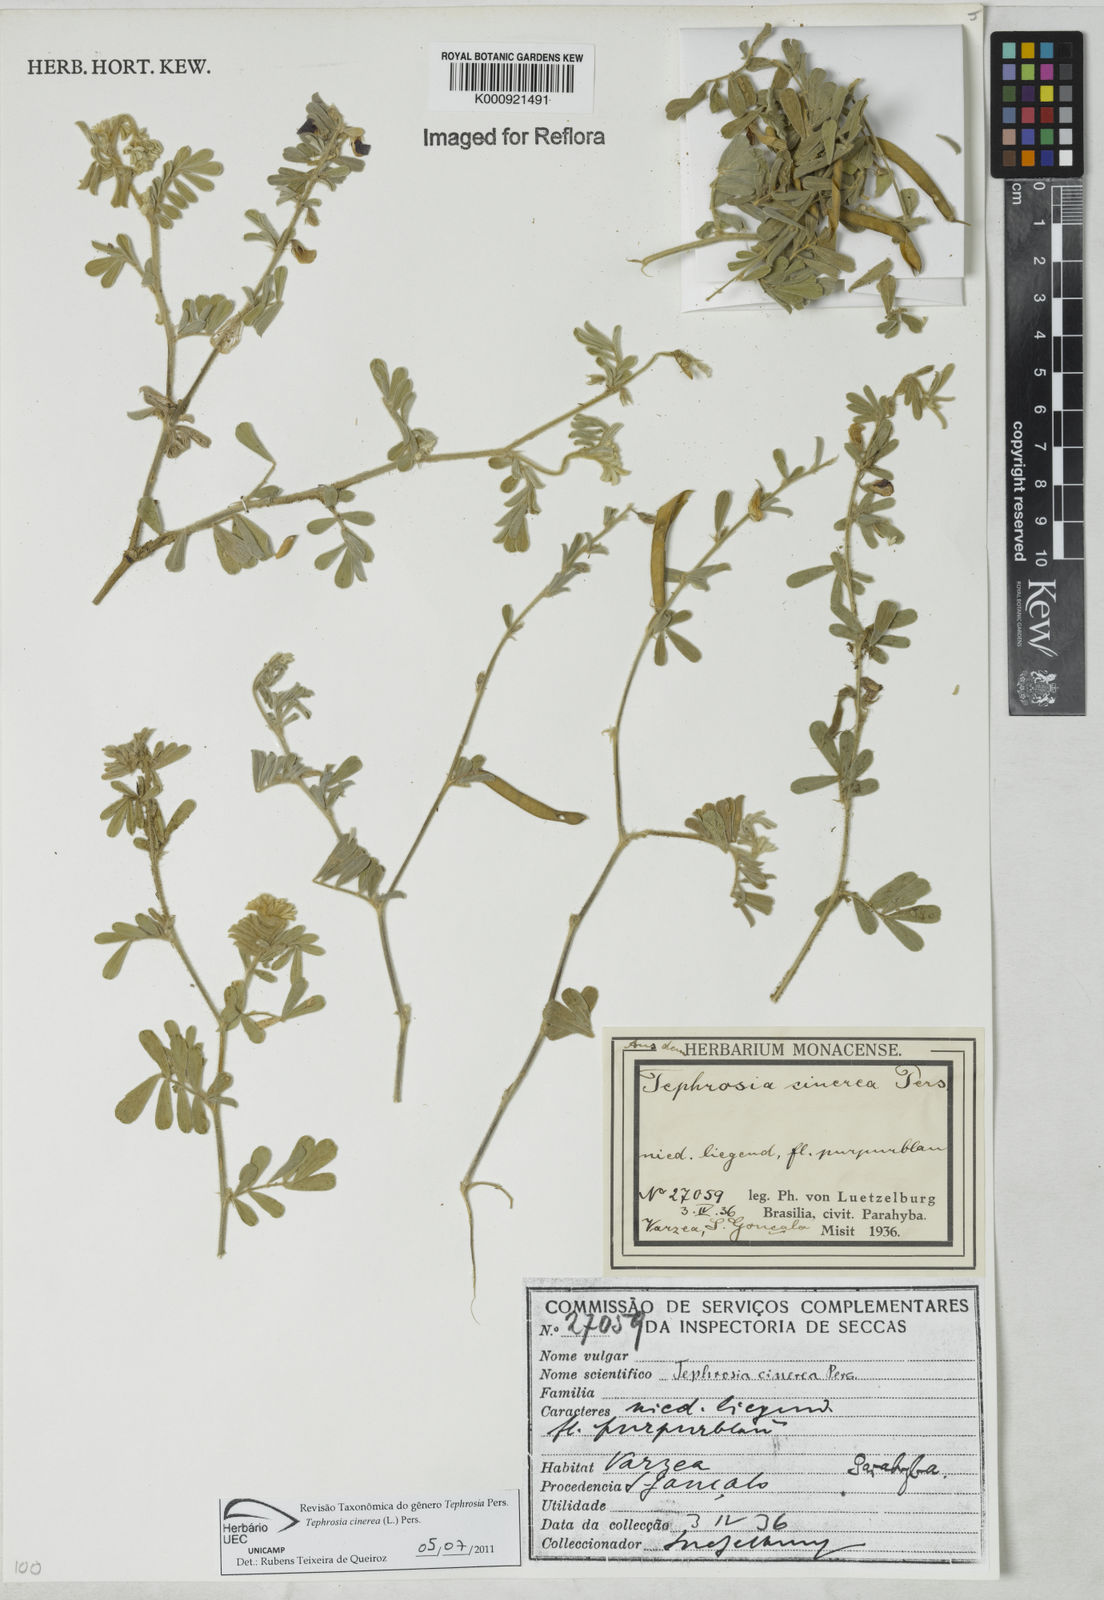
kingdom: Plantae
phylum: Tracheophyta
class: Magnoliopsida
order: Fabales
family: Fabaceae
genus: Tephrosia
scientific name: Tephrosia cinerea
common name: Ashen hoarypea
